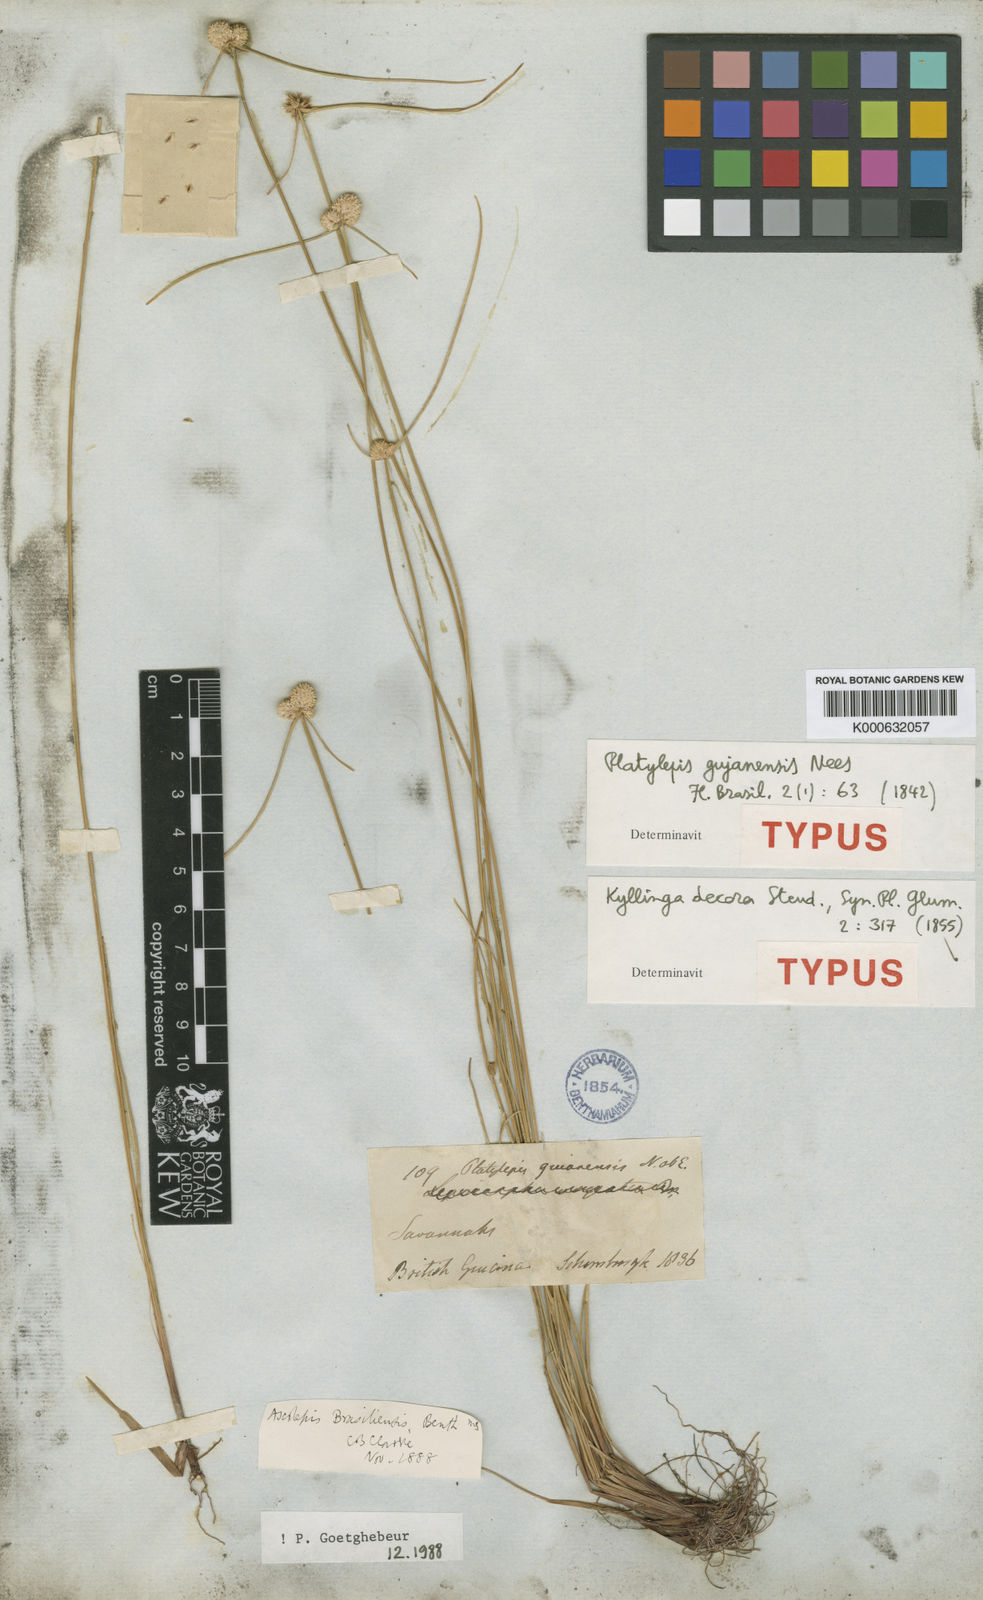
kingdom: Plantae
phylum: Tracheophyta
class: Liliopsida
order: Poales
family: Cyperaceae
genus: Cyperus
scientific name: Cyperus brasiliensis
